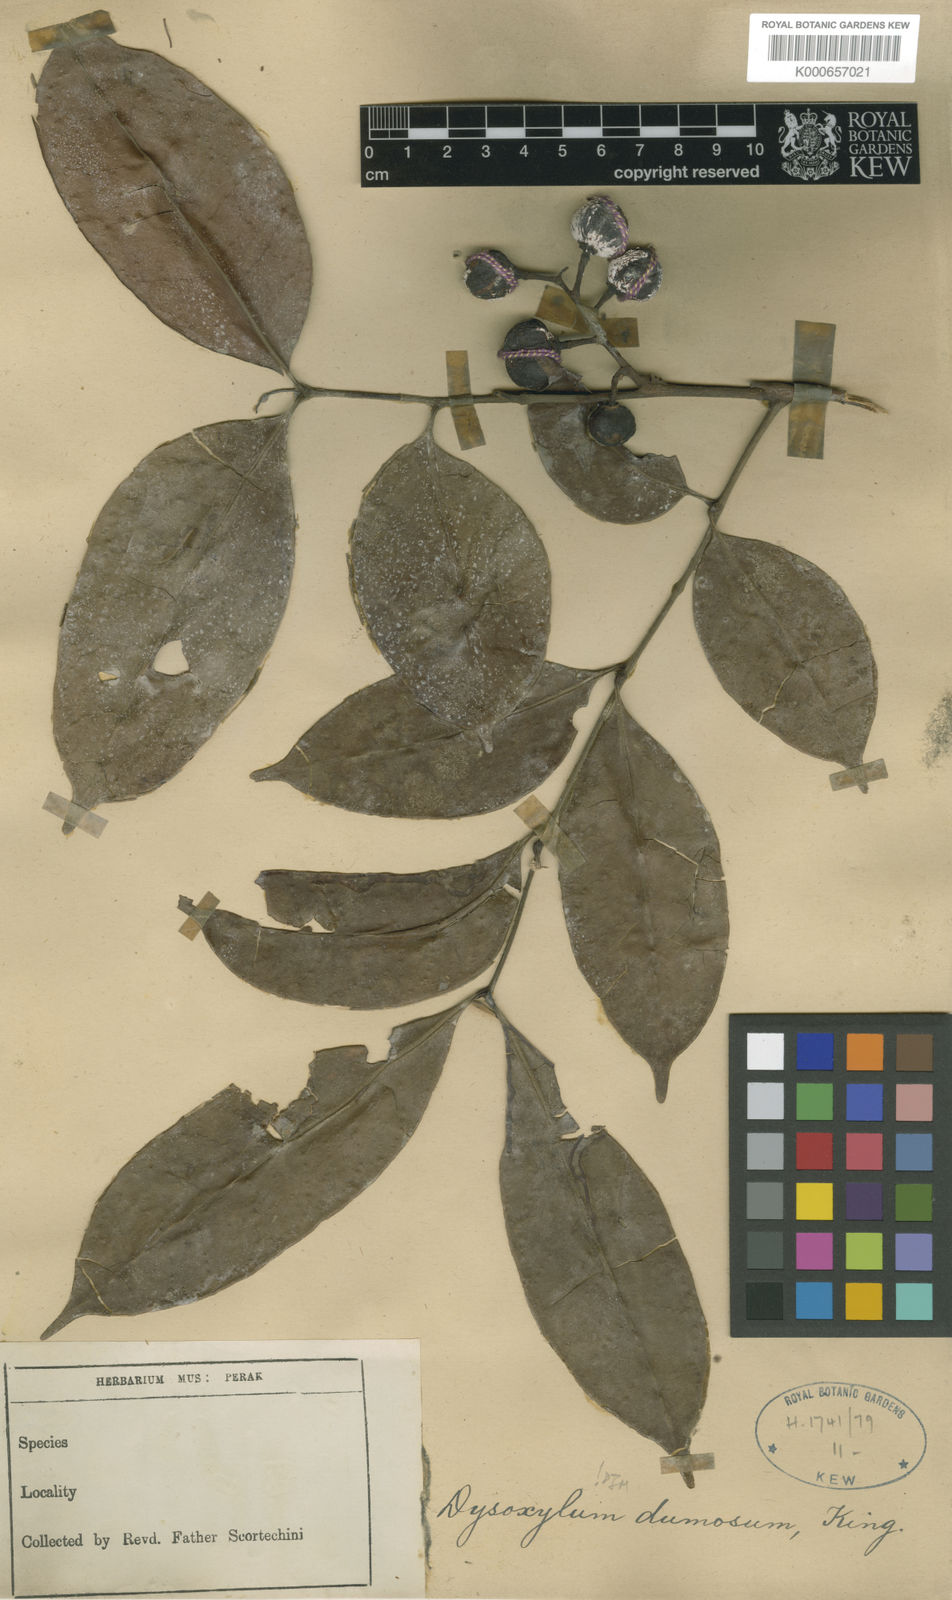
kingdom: Plantae
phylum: Tracheophyta
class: Magnoliopsida
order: Sapindales
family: Meliaceae
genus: Pseudocarapa
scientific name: Pseudocarapa dumosa
